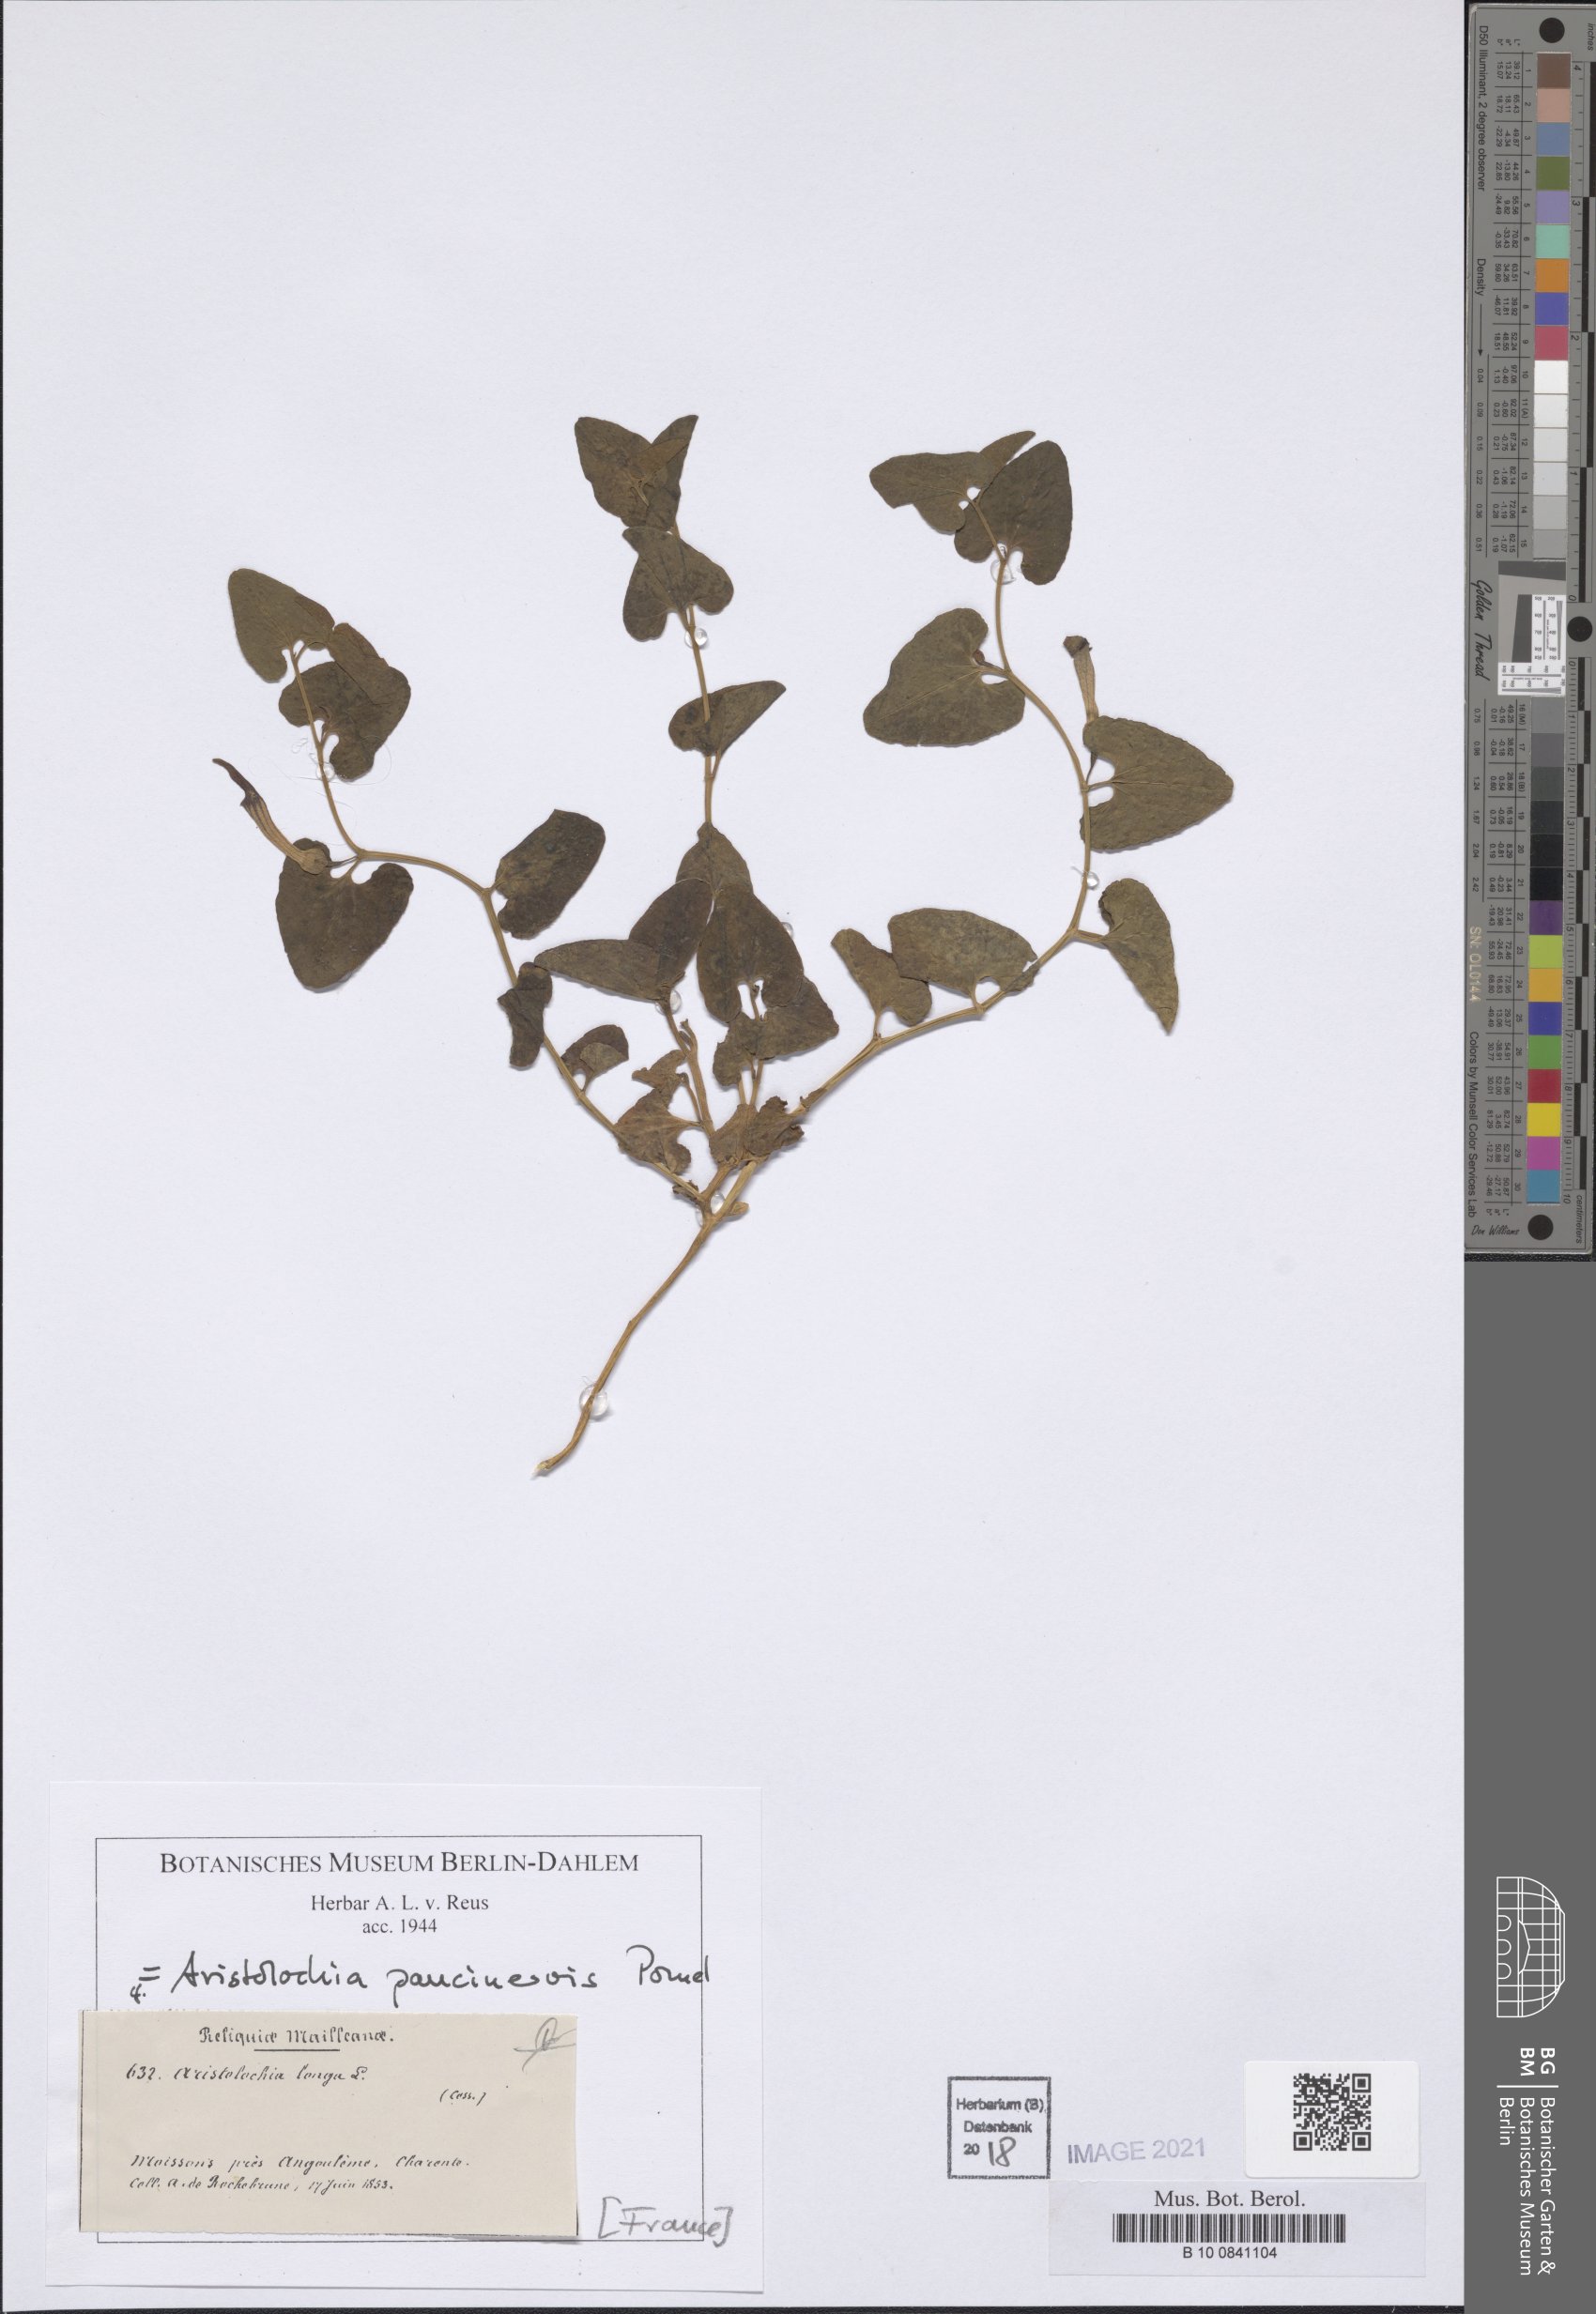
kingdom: Plantae
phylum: Tracheophyta
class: Magnoliopsida
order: Piperales
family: Aristolochiaceae
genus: Aristolochia
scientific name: Aristolochia paucinervis
